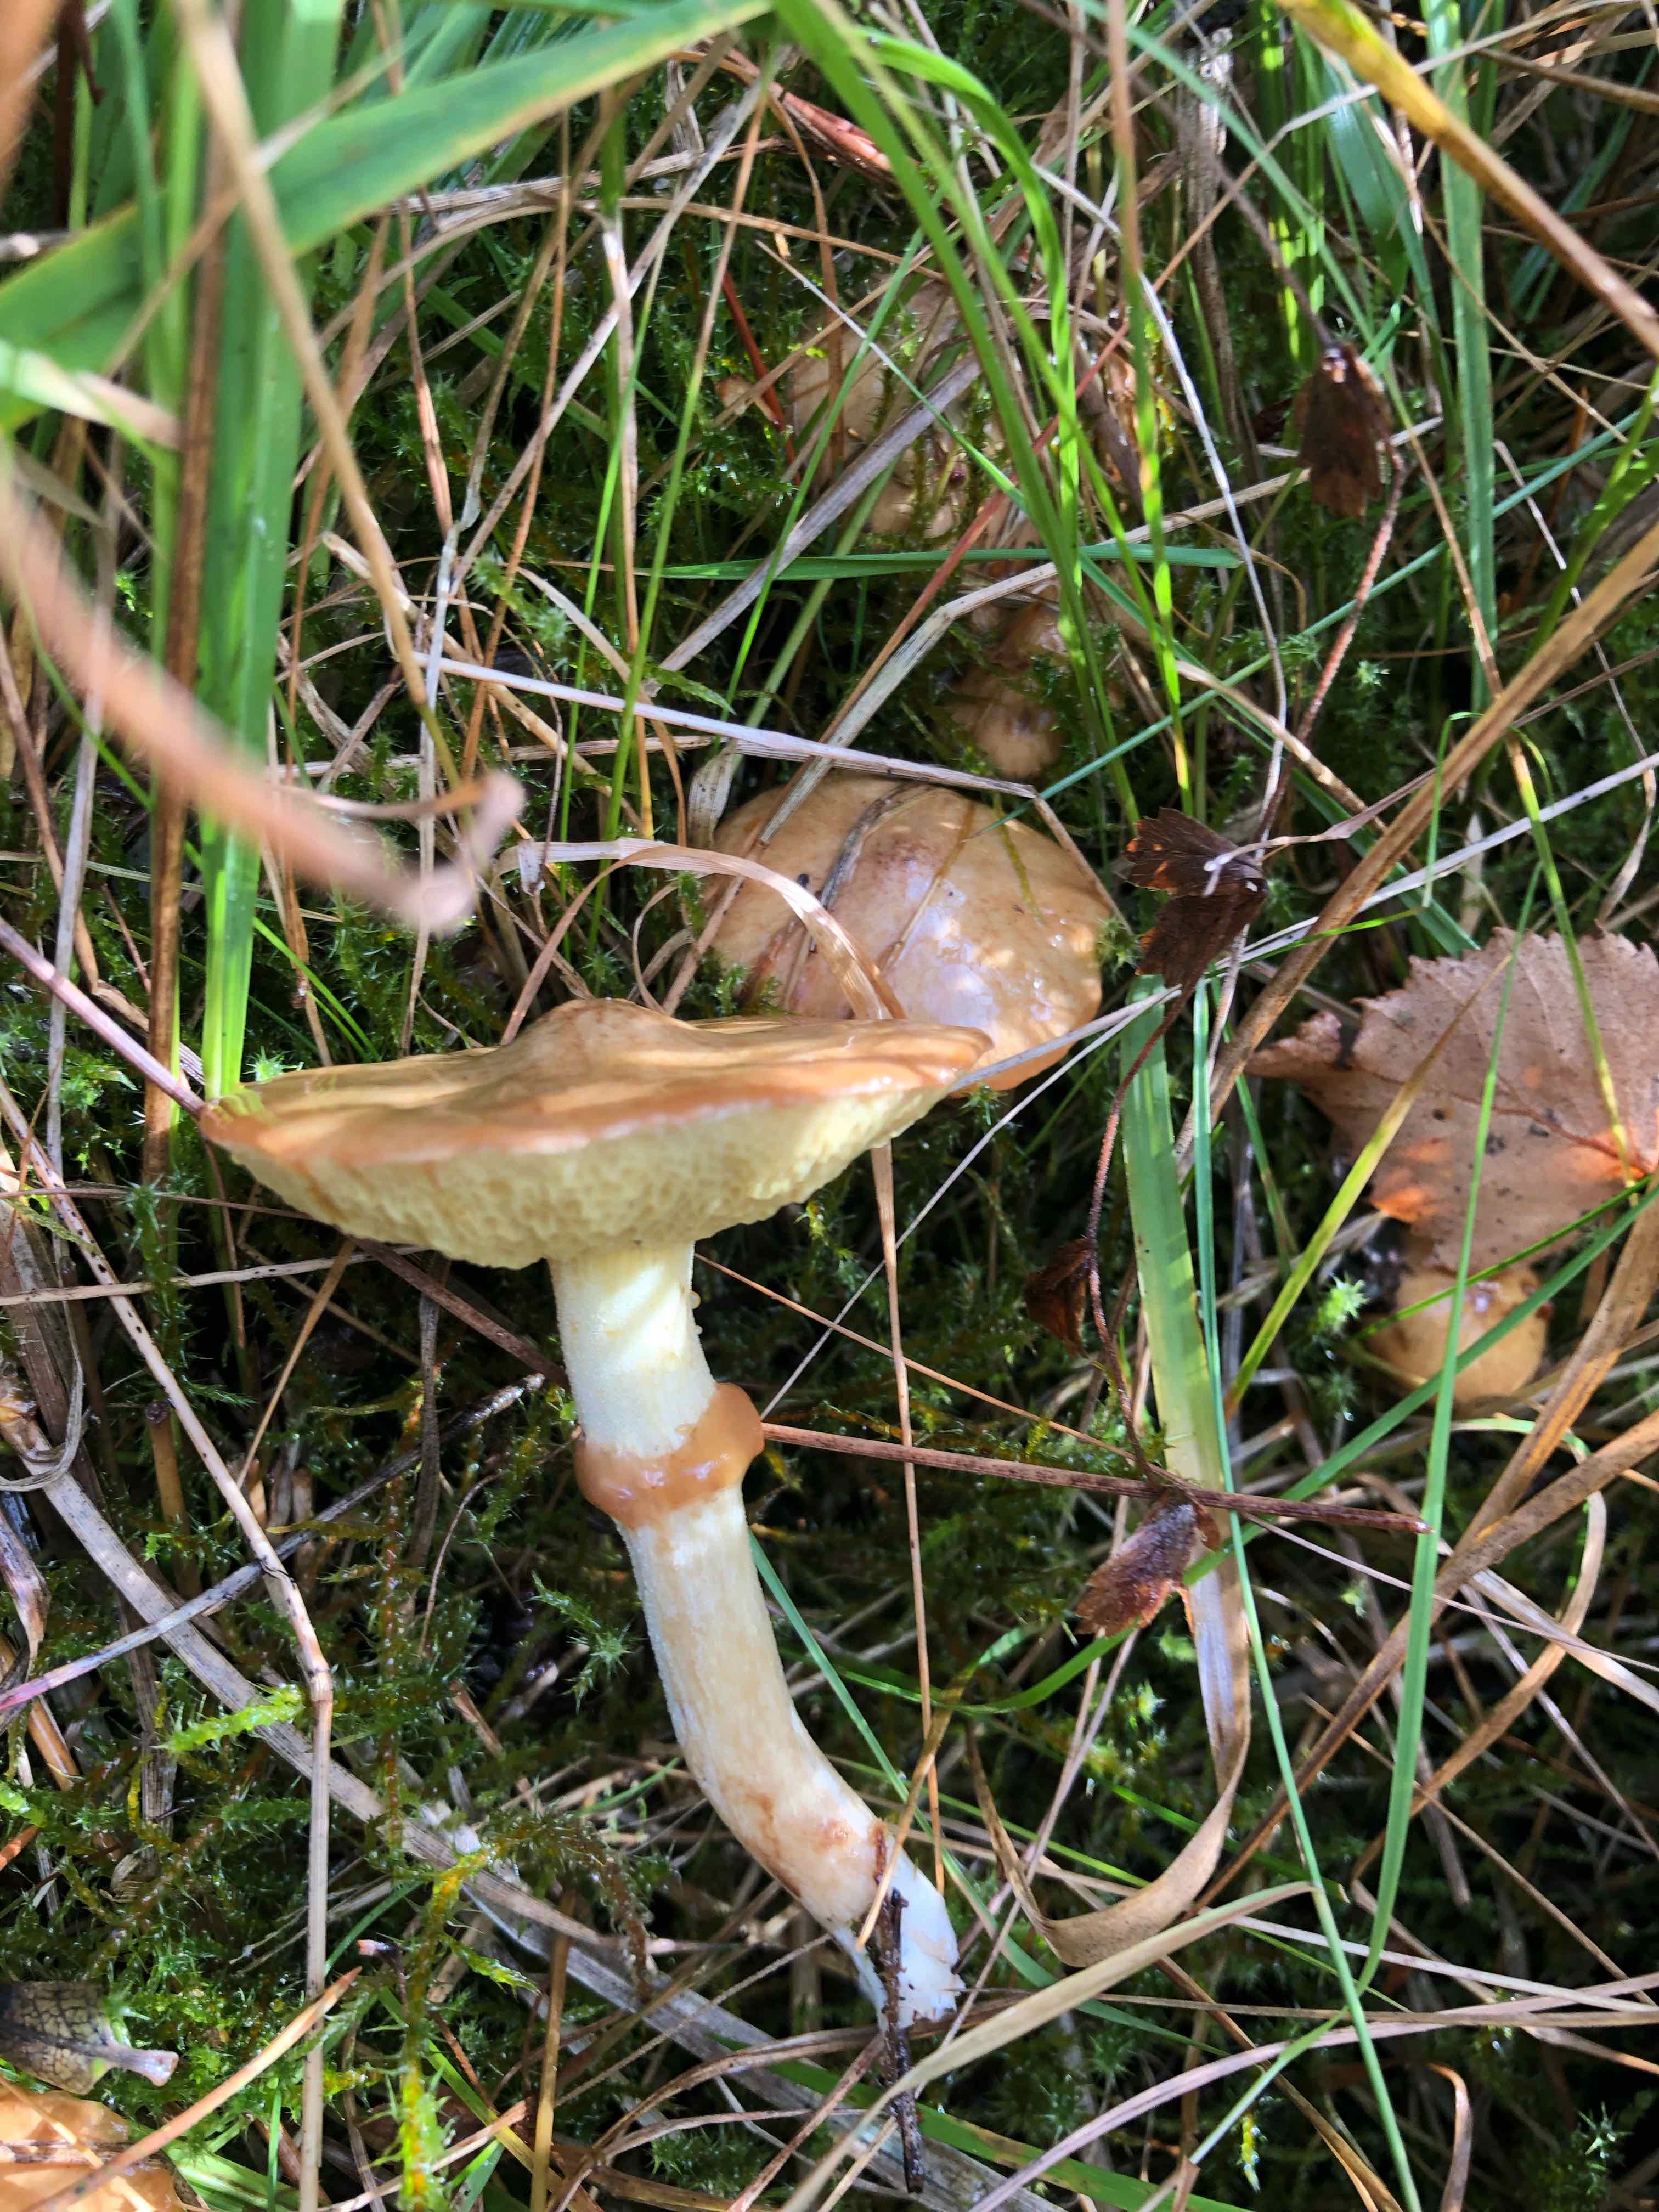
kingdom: Fungi
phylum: Basidiomycota
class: Agaricomycetes
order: Boletales
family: Suillaceae
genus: Suillus
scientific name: Suillus flavidus
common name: mose-slimrørhat
